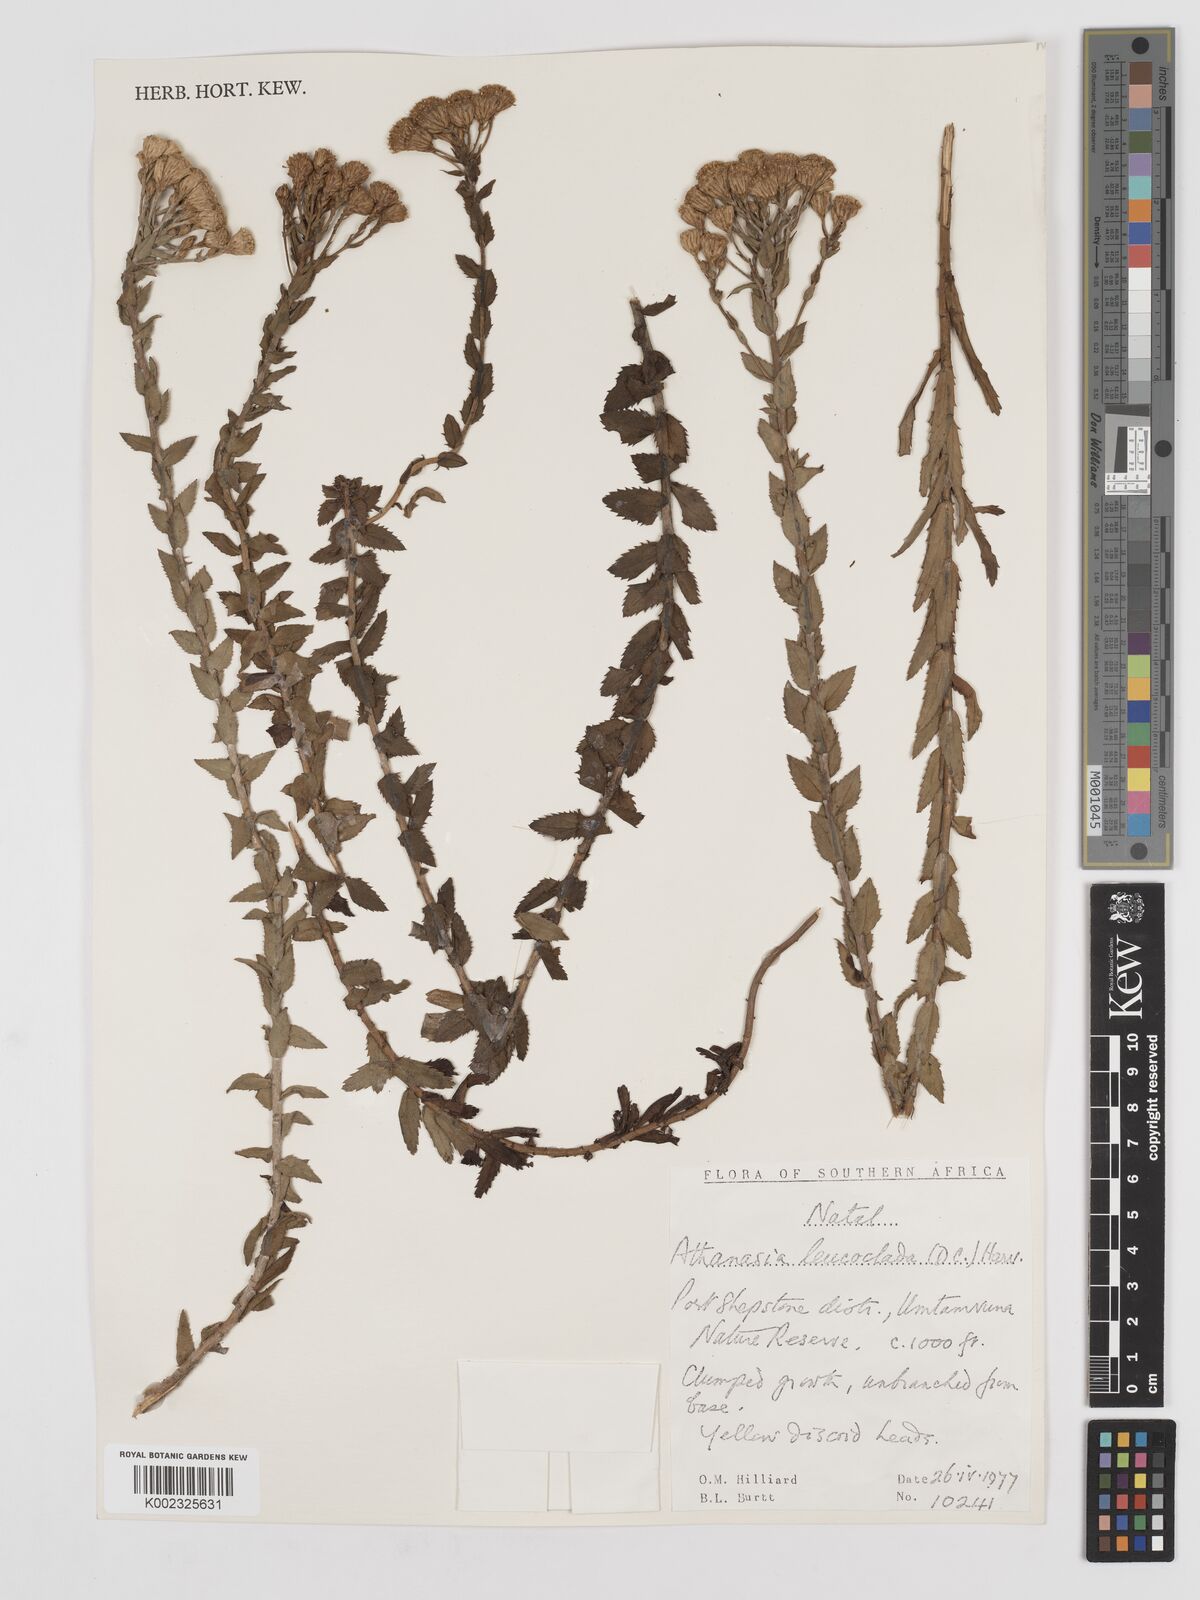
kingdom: Plantae
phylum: Tracheophyta
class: Magnoliopsida
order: Asterales
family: Asteraceae
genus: Inulanthera
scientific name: Inulanthera leucoclada
